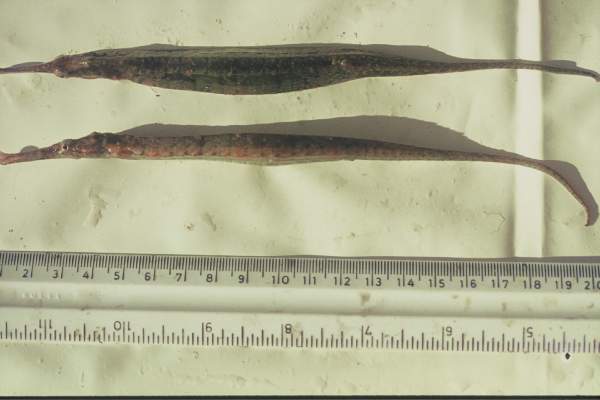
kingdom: Animalia
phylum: Chordata
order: Syngnathiformes
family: Syngnathidae
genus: Syngnathoides
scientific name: Syngnathoides biaculeatus
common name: Alligator pipefish
